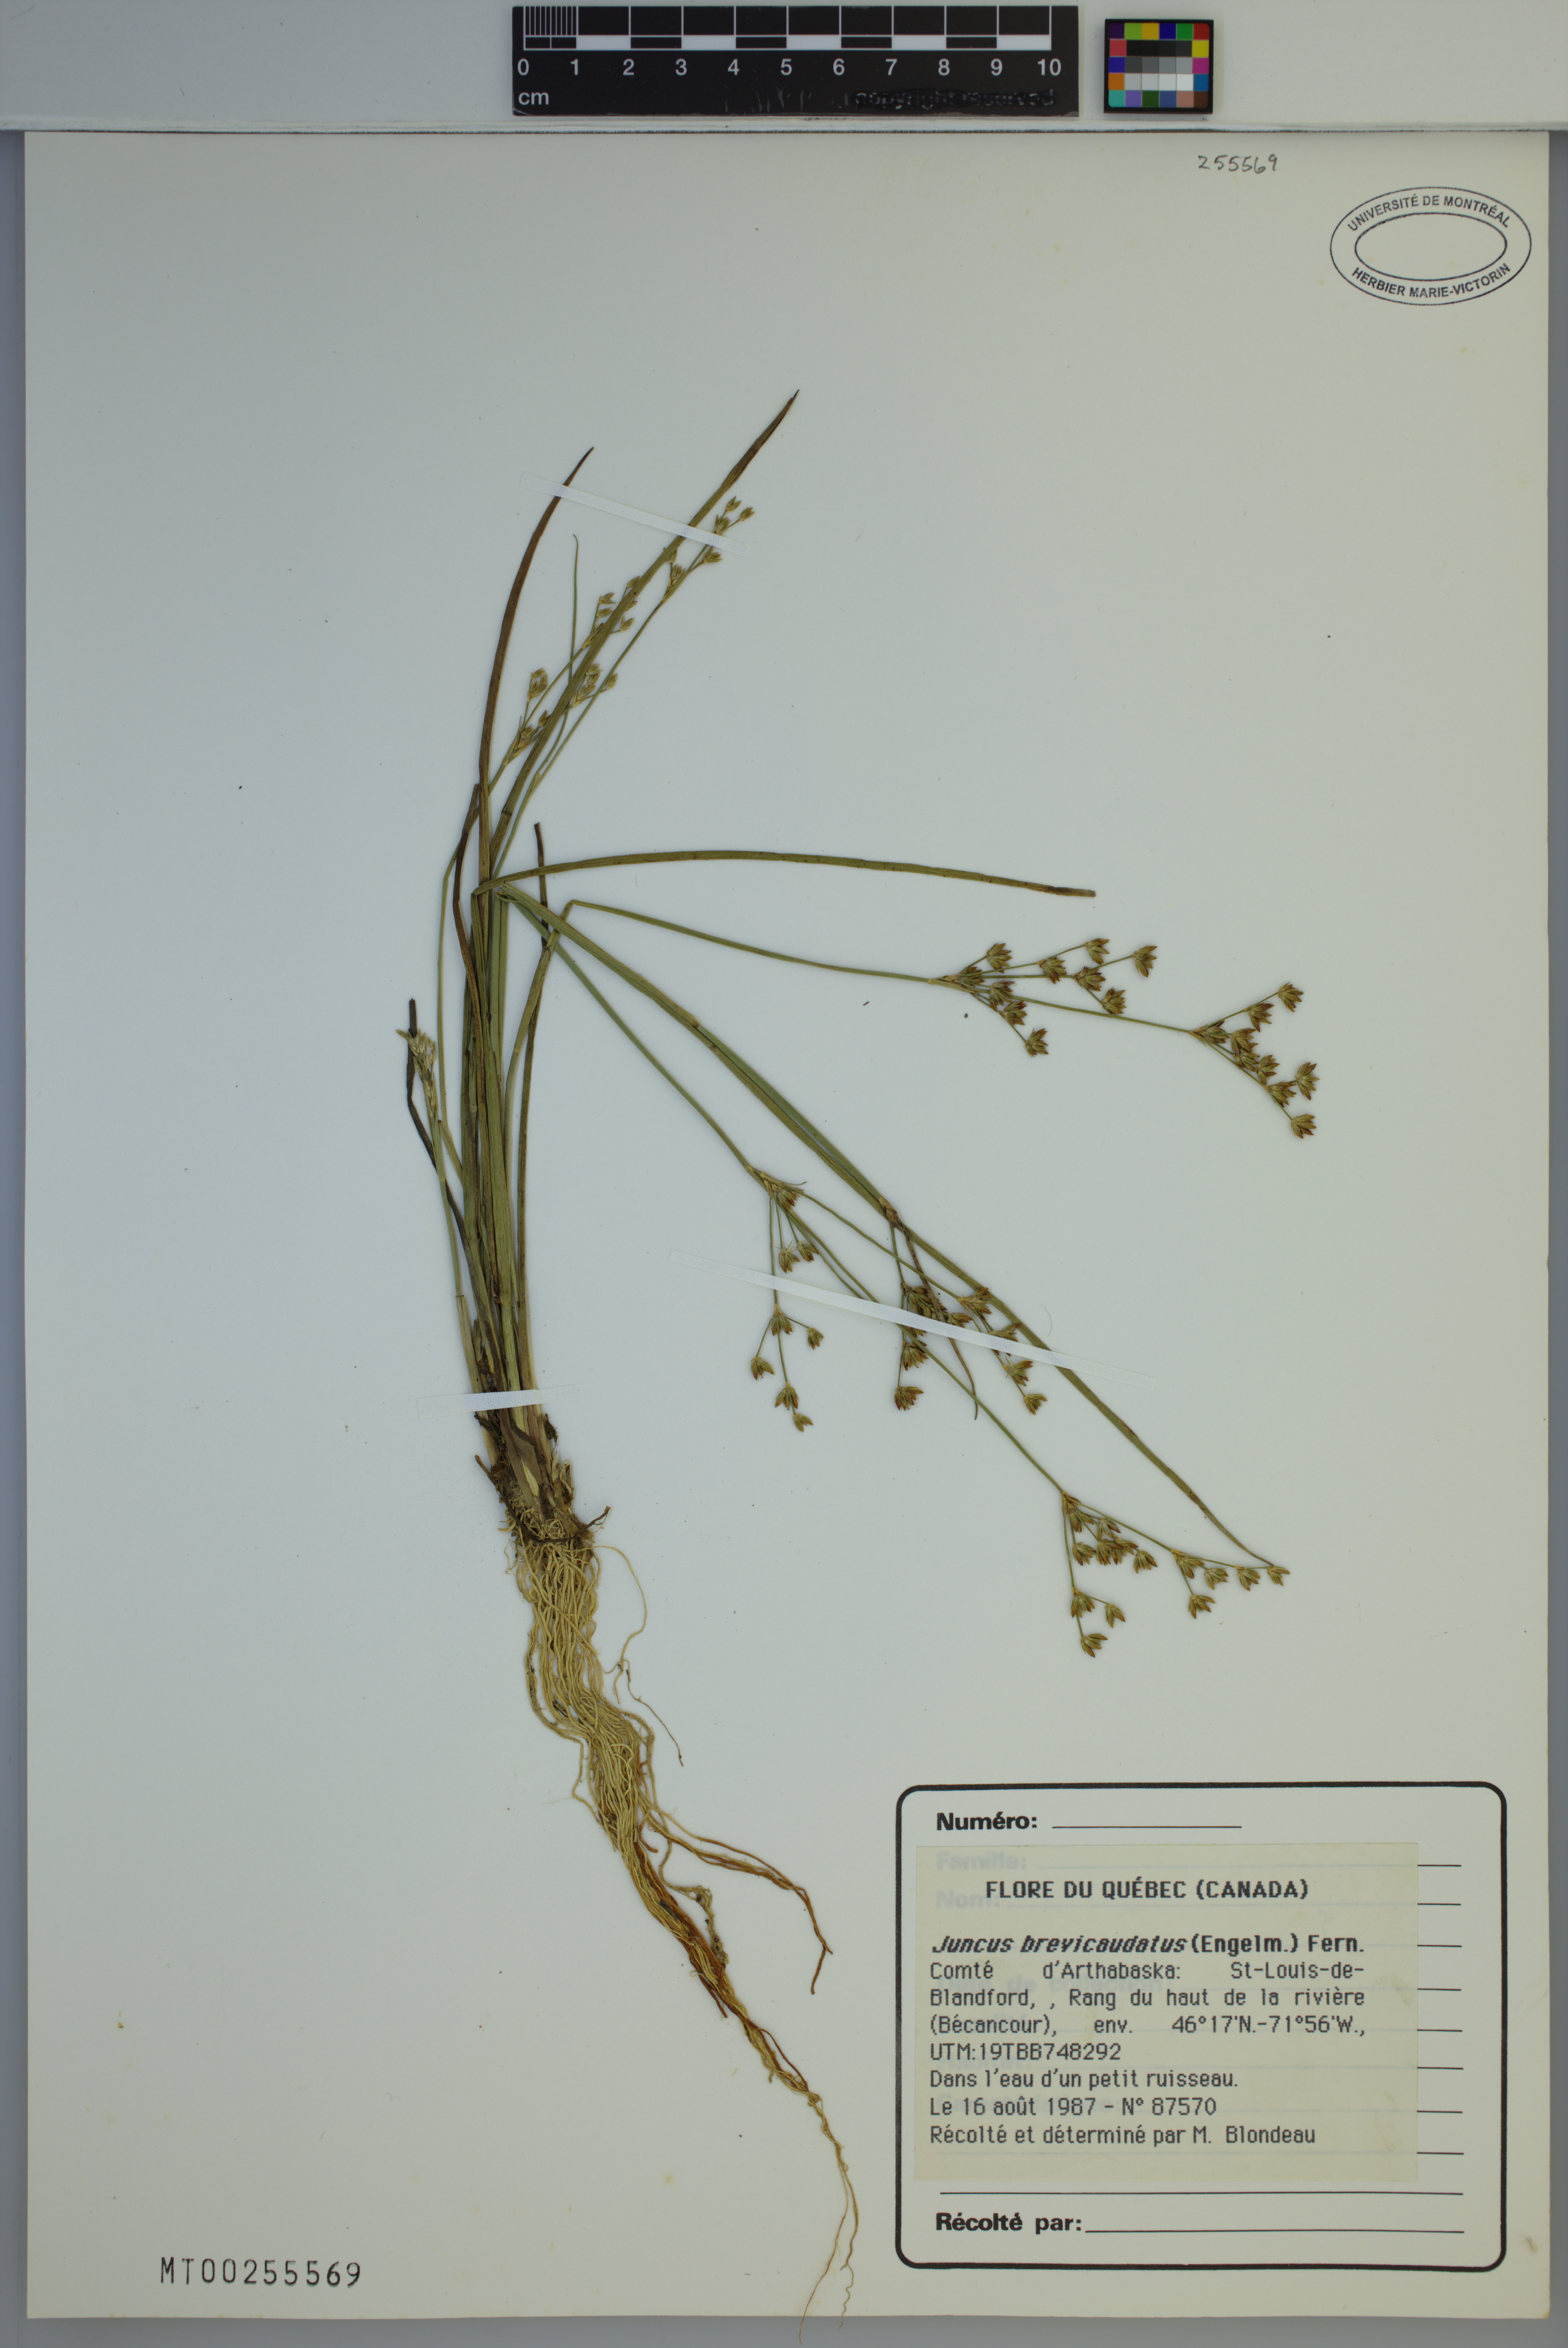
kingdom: Plantae
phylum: Tracheophyta
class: Liliopsida
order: Poales
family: Juncaceae
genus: Juncus
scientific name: Juncus brevicaudatus
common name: Narrow-panicle rush
